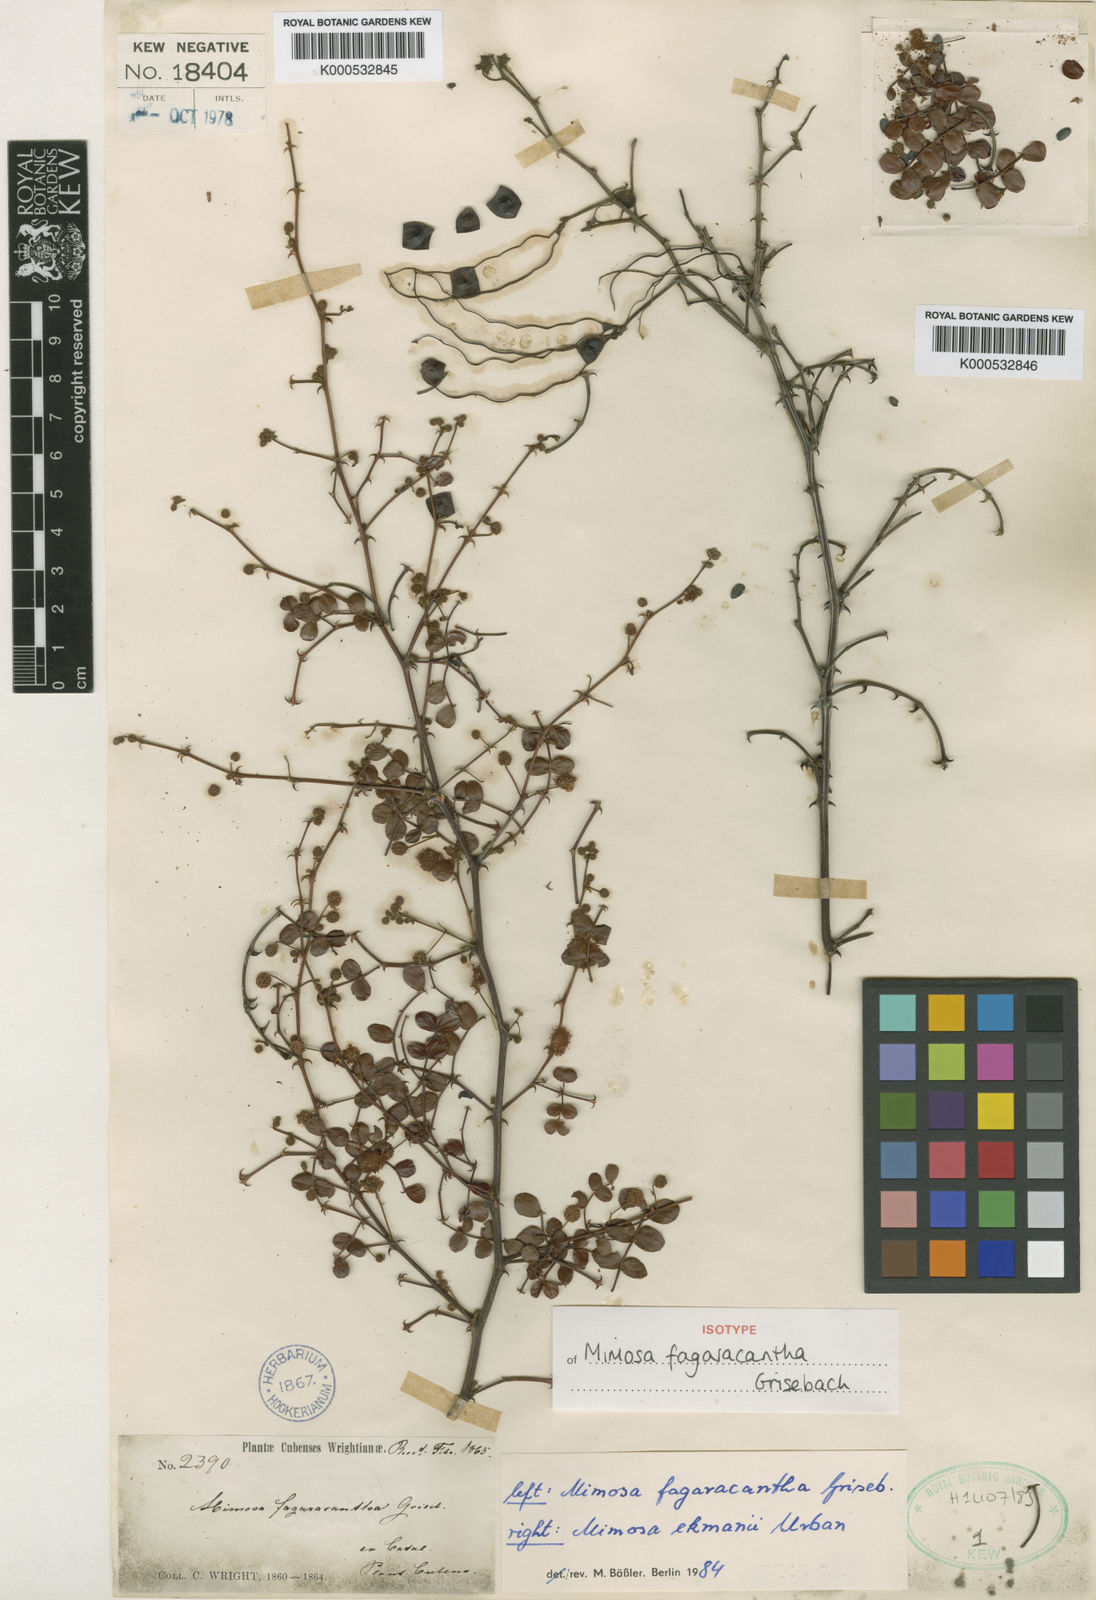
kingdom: Plantae
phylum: Tracheophyta
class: Magnoliopsida
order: Fabales
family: Fabaceae
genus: Mimosa
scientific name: Mimosa
